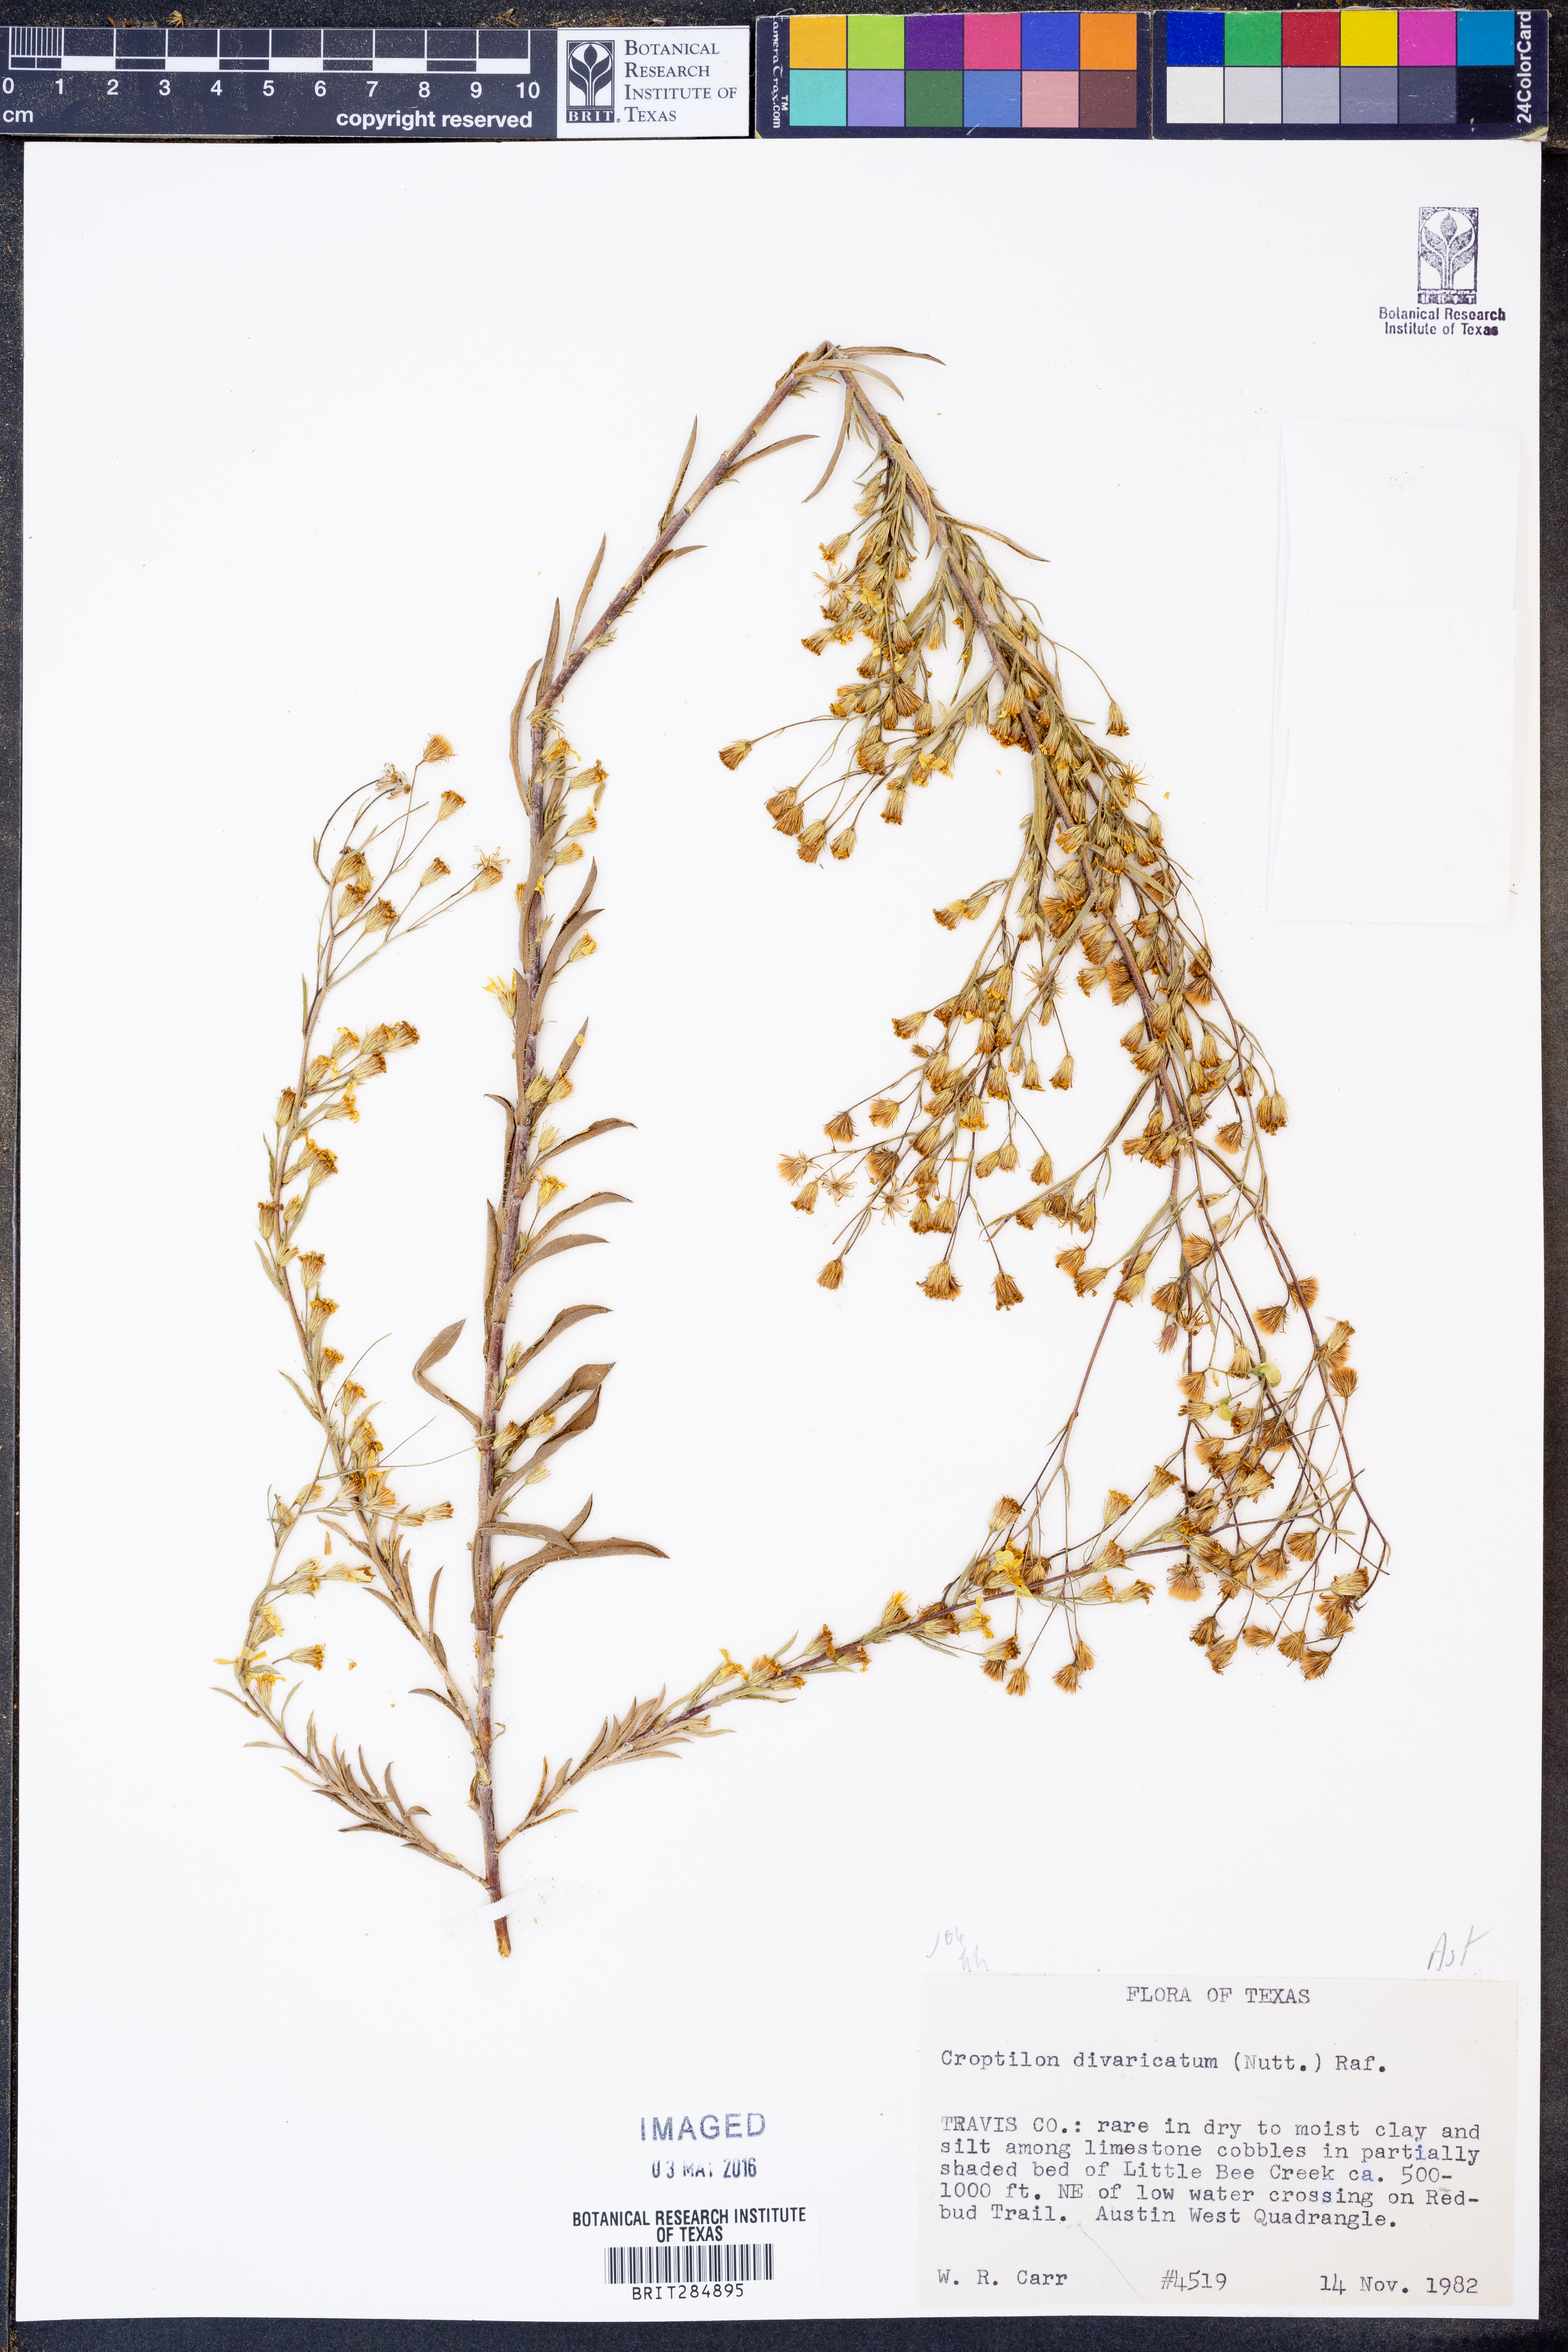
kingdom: Plantae
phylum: Tracheophyta
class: Magnoliopsida
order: Asterales
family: Asteraceae
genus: Croptilon
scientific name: Croptilon divaricatum
